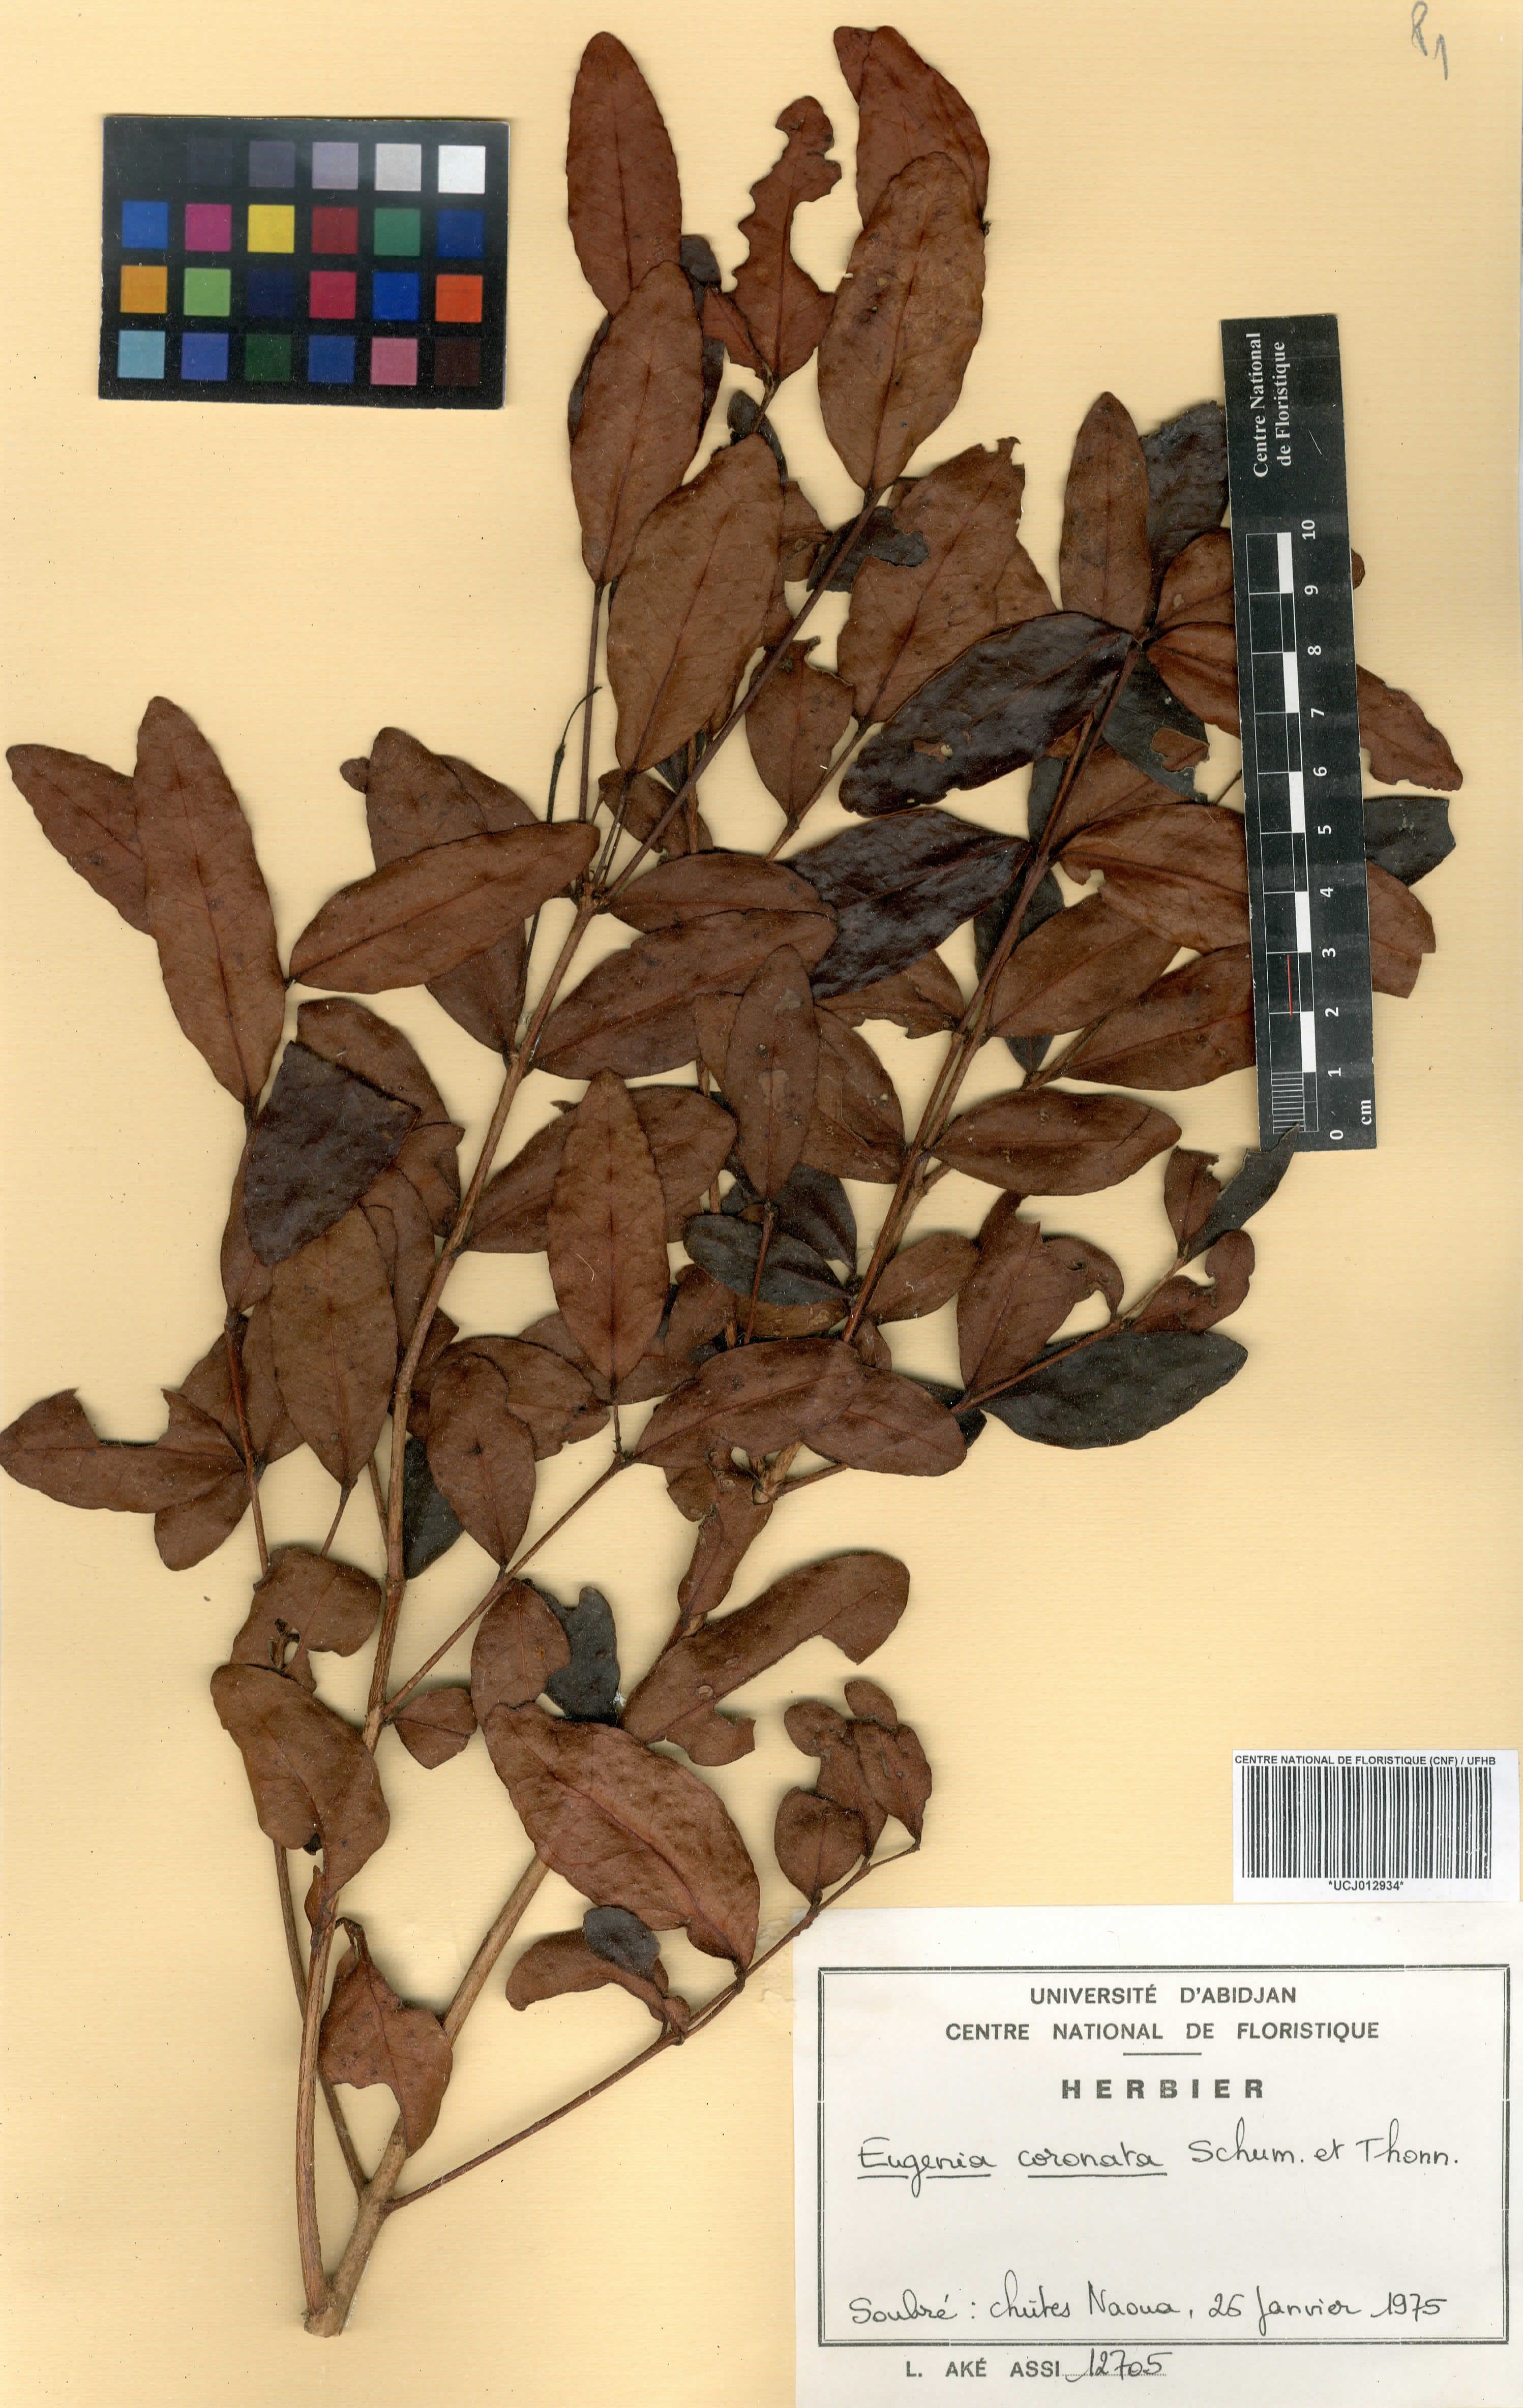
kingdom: Plantae
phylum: Tracheophyta
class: Magnoliopsida
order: Myrtales
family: Myrtaceae
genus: Eugenia
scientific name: Eugenia coronata
